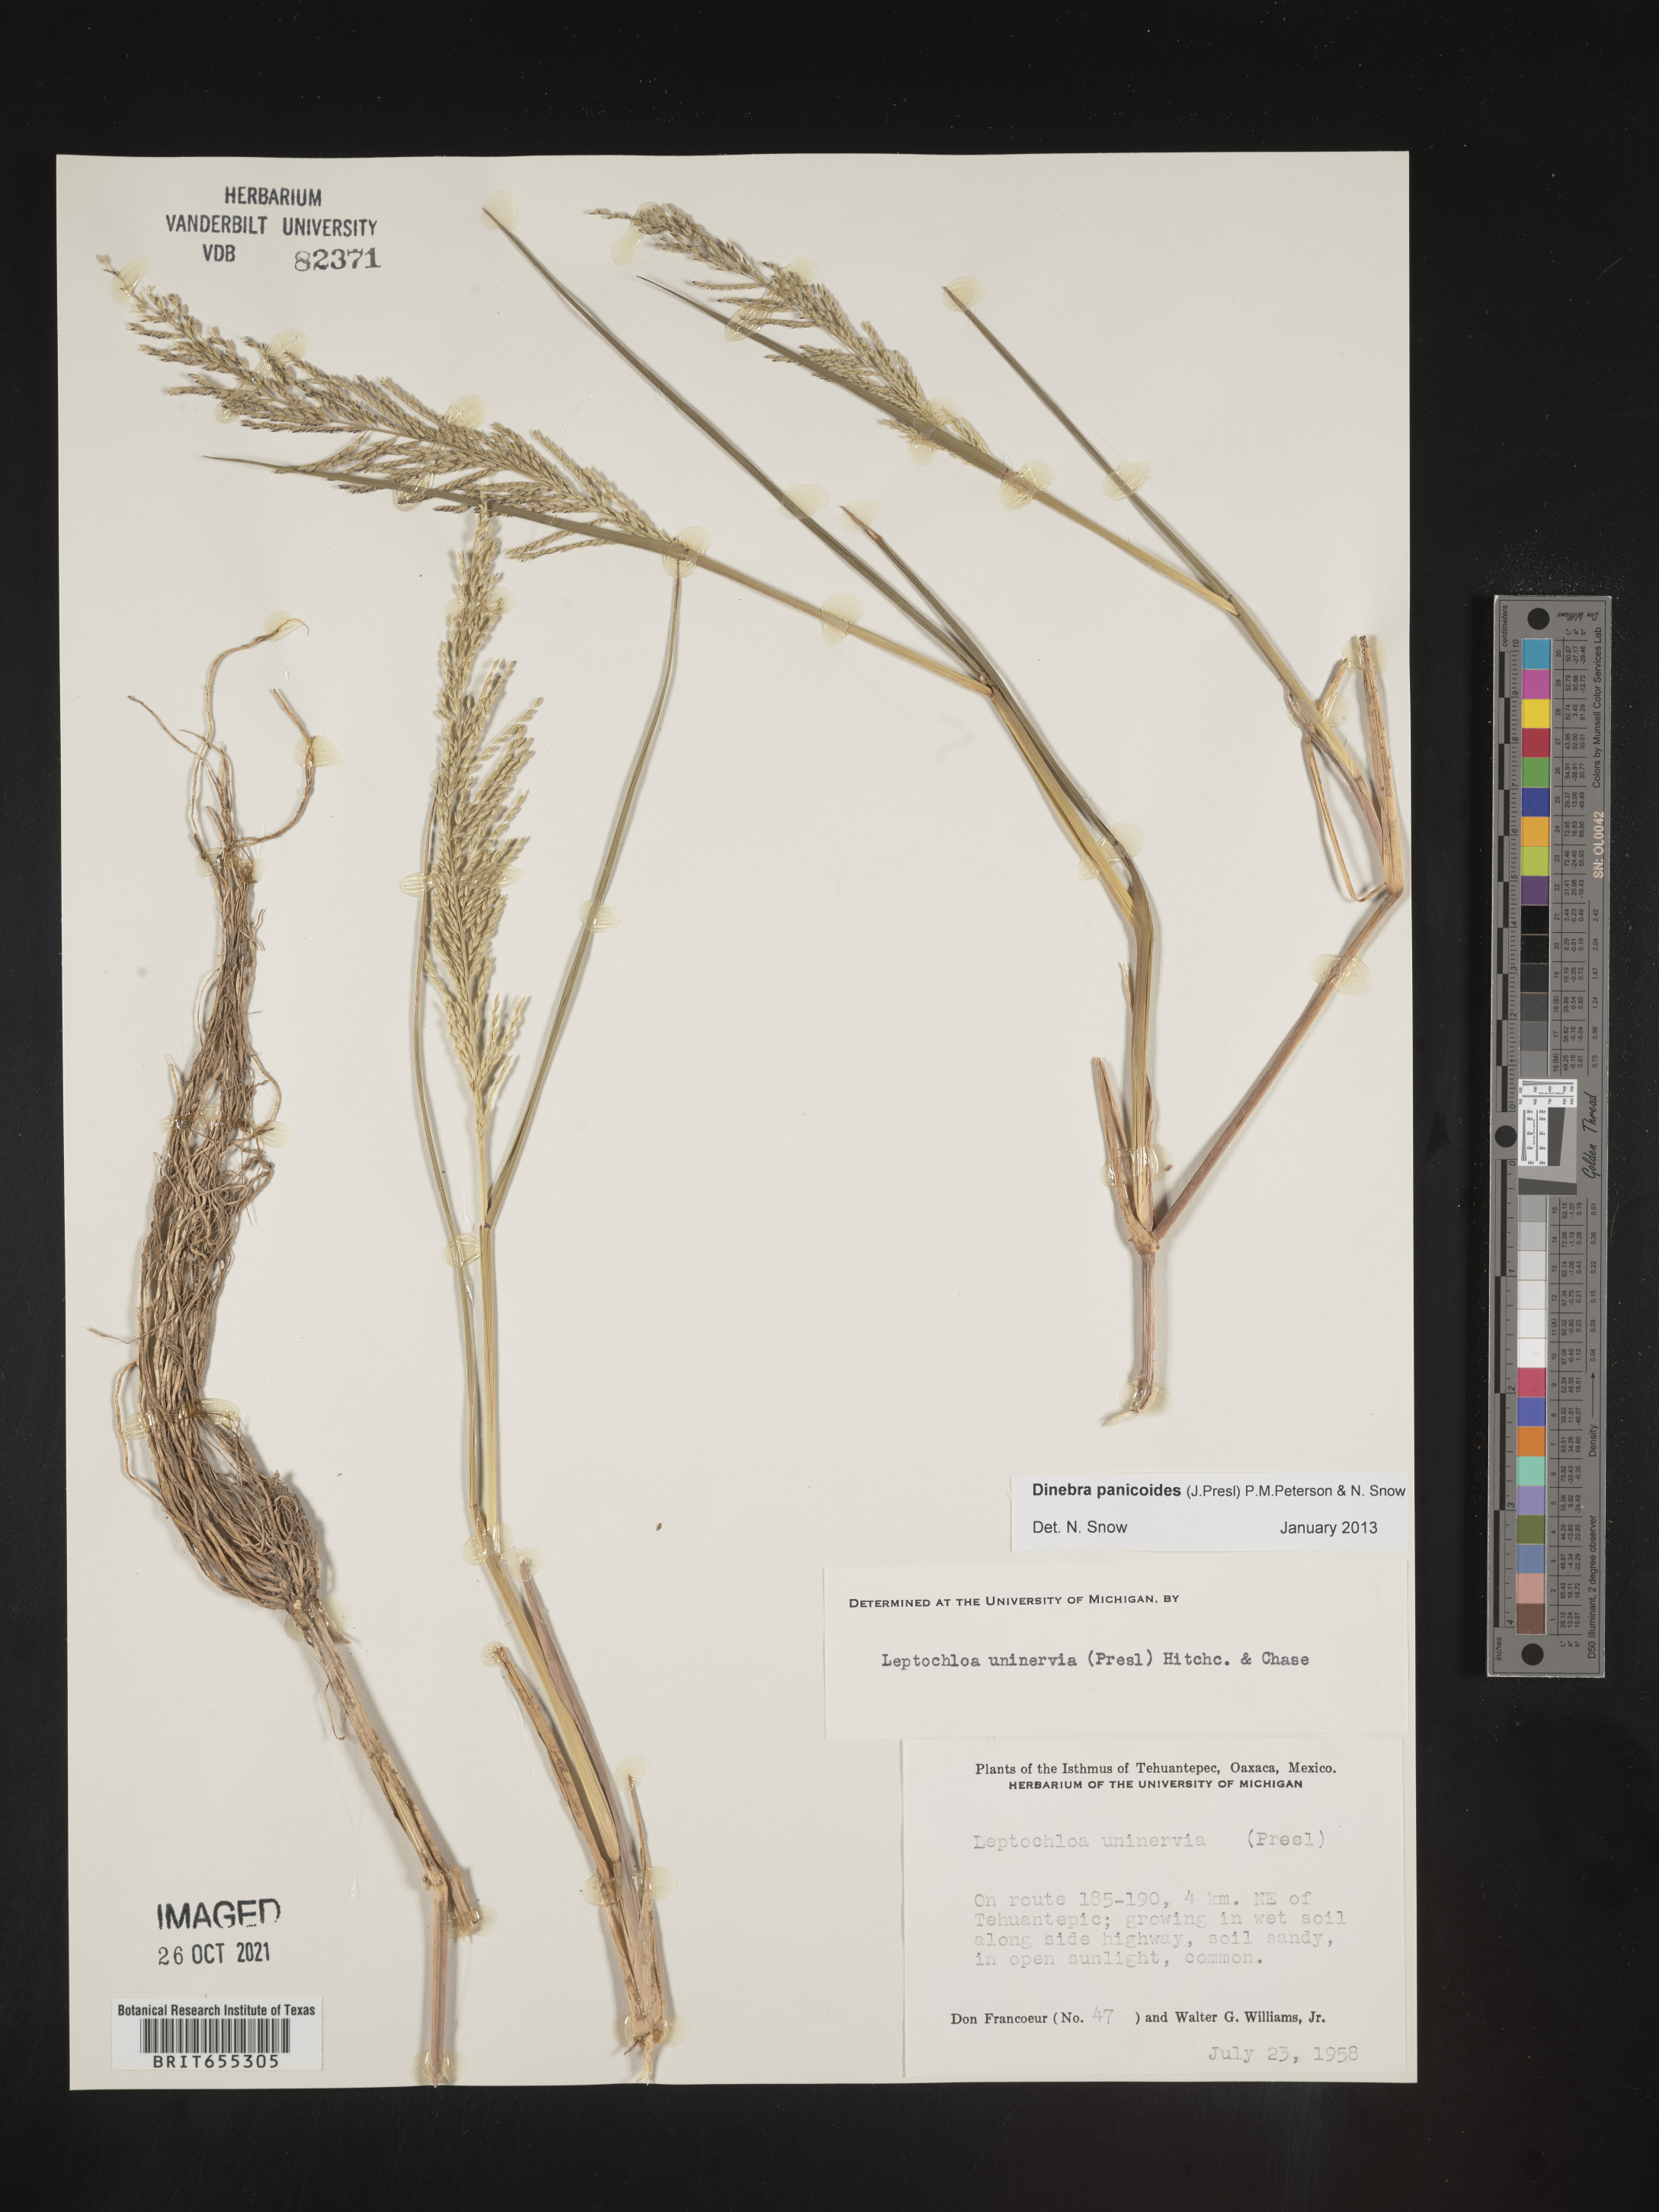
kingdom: Plantae
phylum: Tracheophyta
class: Liliopsida
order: Poales
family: Poaceae
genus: Dinebra
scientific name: Dinebra
